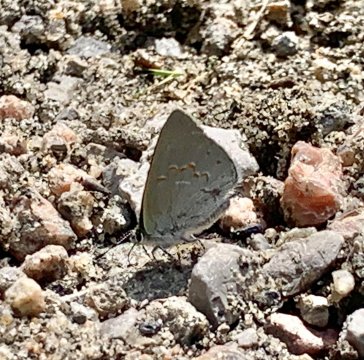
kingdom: Animalia
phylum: Arthropoda
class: Insecta
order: Lepidoptera
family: Lycaenidae
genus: Erora
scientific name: Erora laeta
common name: Early Hairstreak
